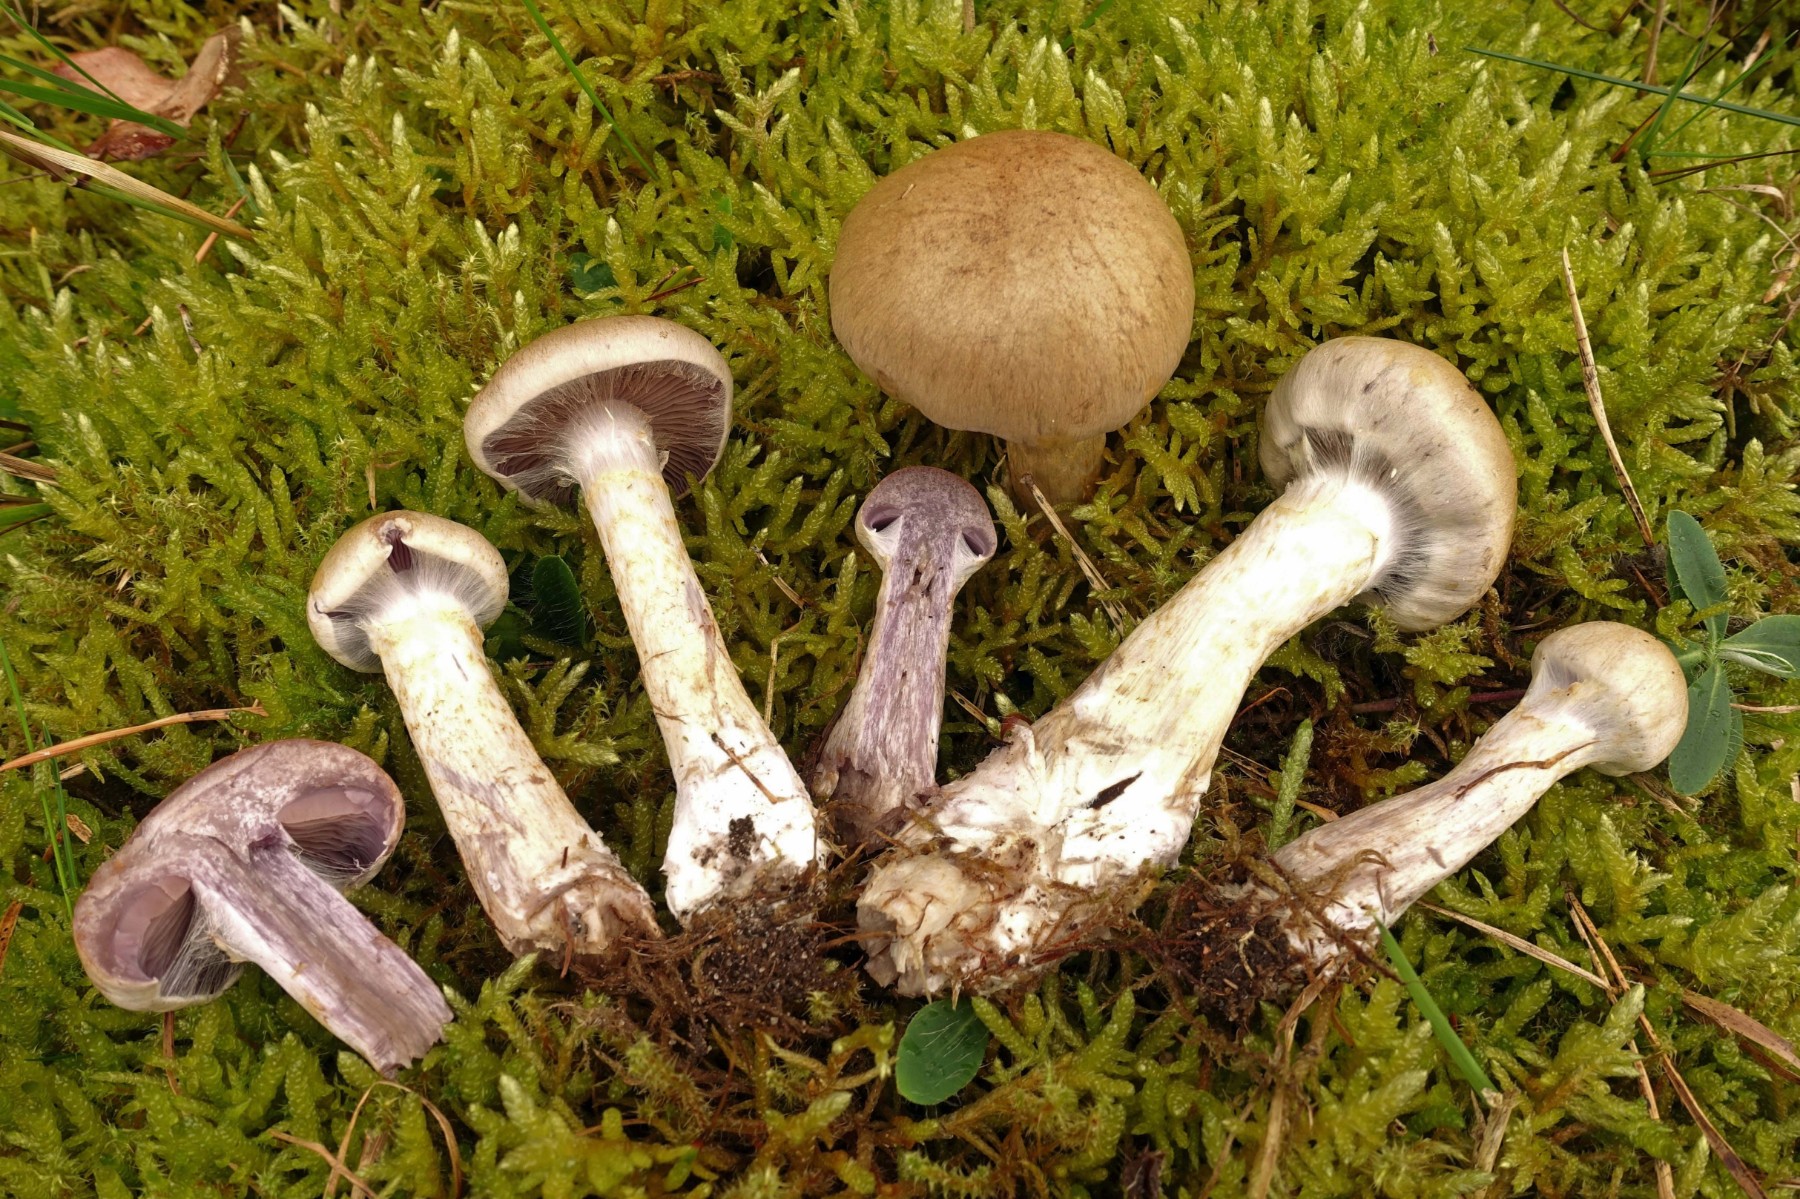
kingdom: Fungi
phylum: Basidiomycota
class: Agaricomycetes
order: Agaricales
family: Cortinariaceae
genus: Cortinarius
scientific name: Cortinarius
